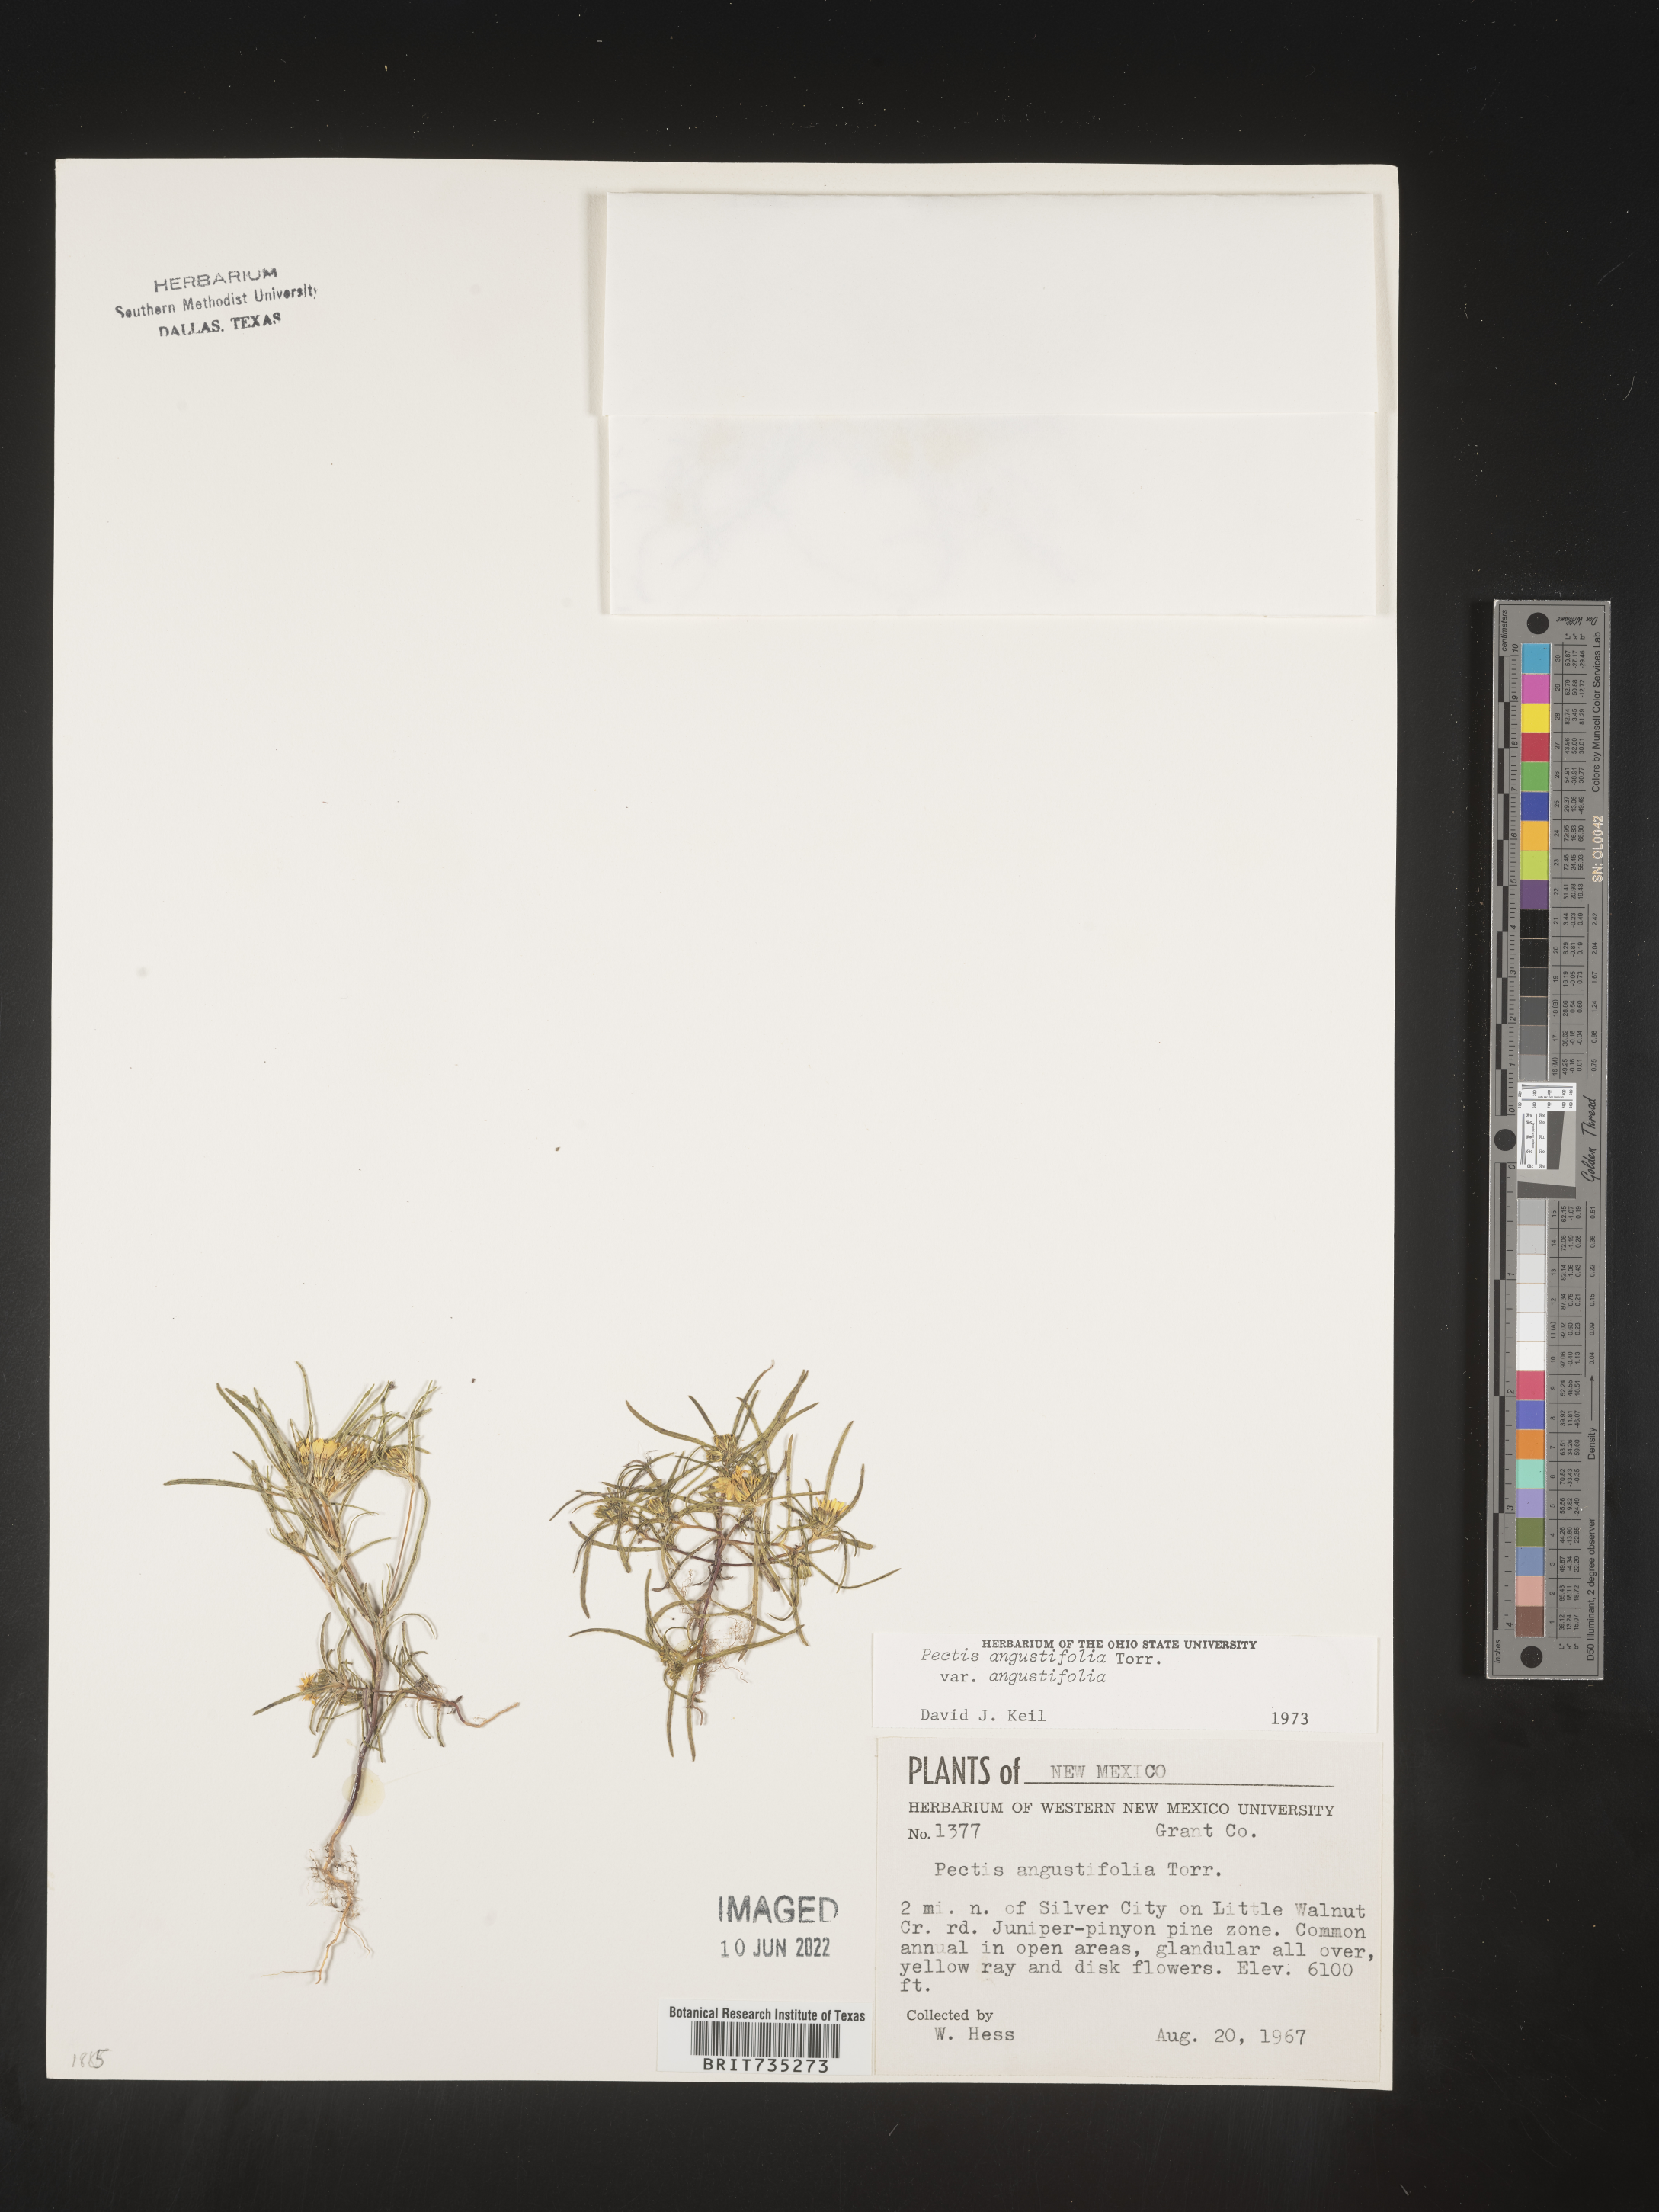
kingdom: Plantae
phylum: Tracheophyta
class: Magnoliopsida
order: Asterales
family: Asteraceae
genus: Pectis
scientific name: Pectis angustifolia
